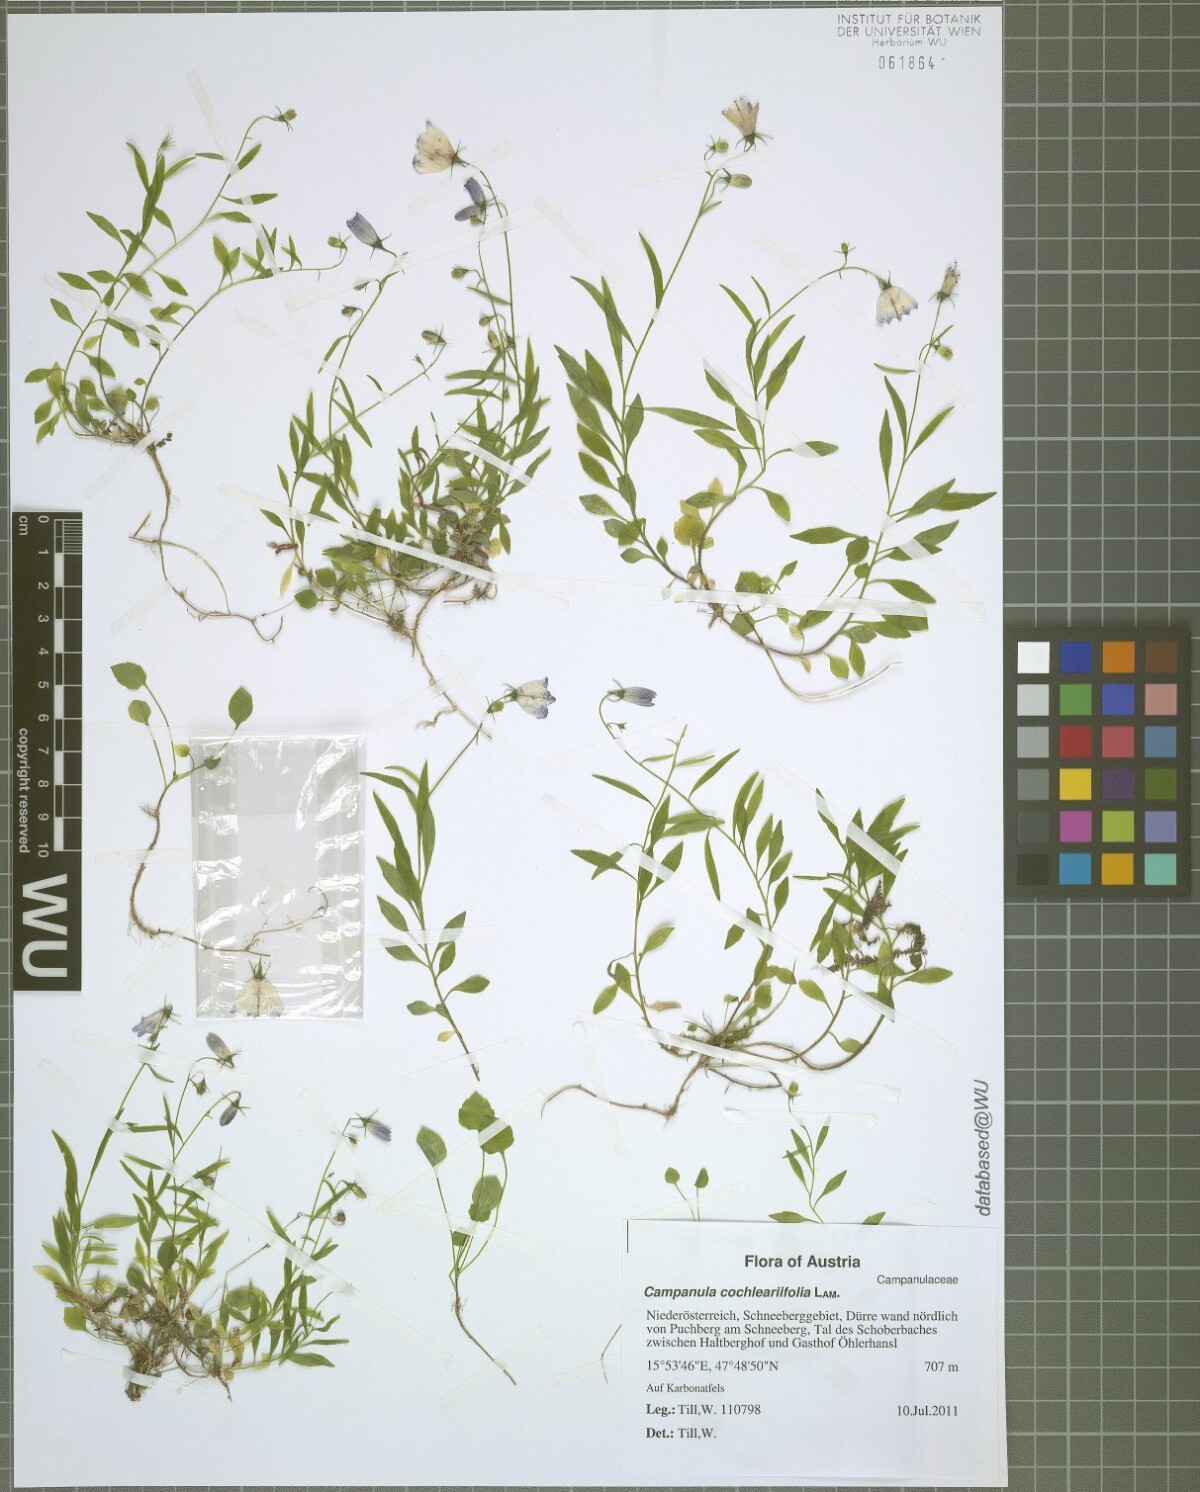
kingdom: Plantae
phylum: Tracheophyta
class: Magnoliopsida
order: Asterales
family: Campanulaceae
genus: Campanula
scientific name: Campanula cochleariifolia
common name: Fairies'-thimbles
